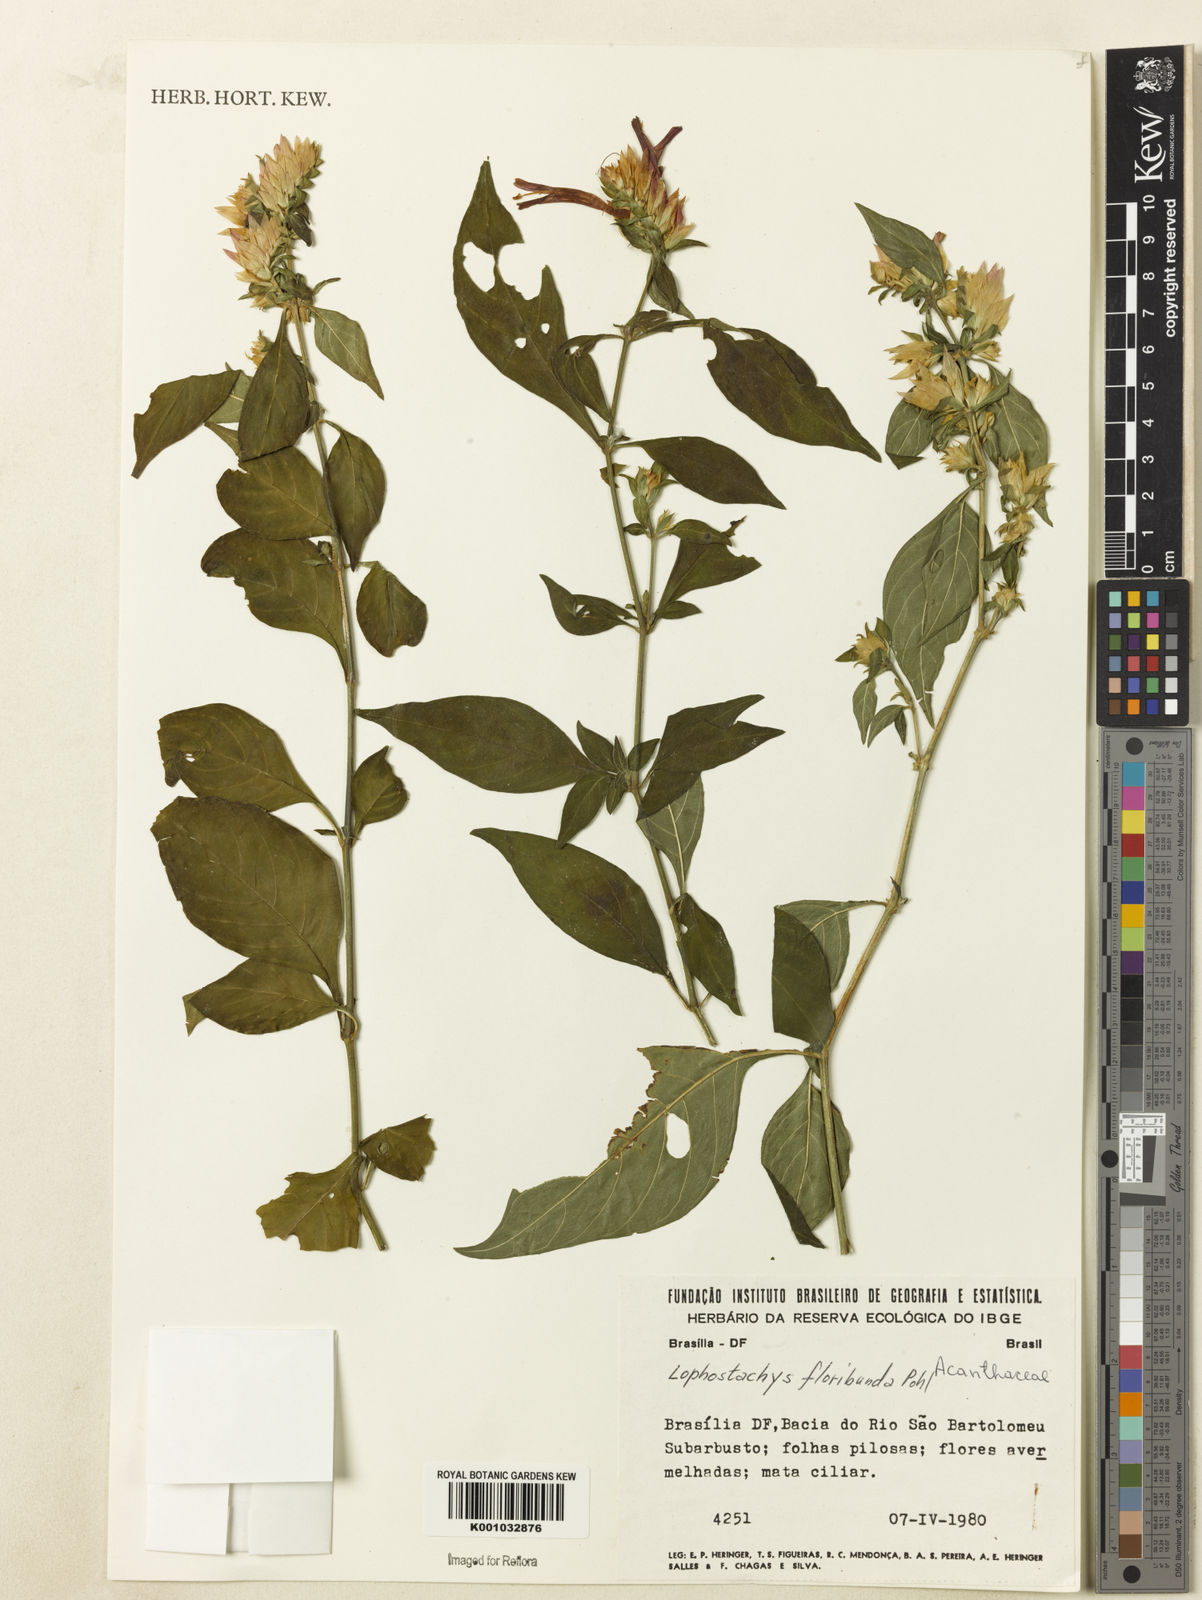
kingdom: Plantae
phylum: Tracheophyta
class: Magnoliopsida
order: Lamiales
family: Acanthaceae
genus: Lepidagathis
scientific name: Lepidagathis floribunda
